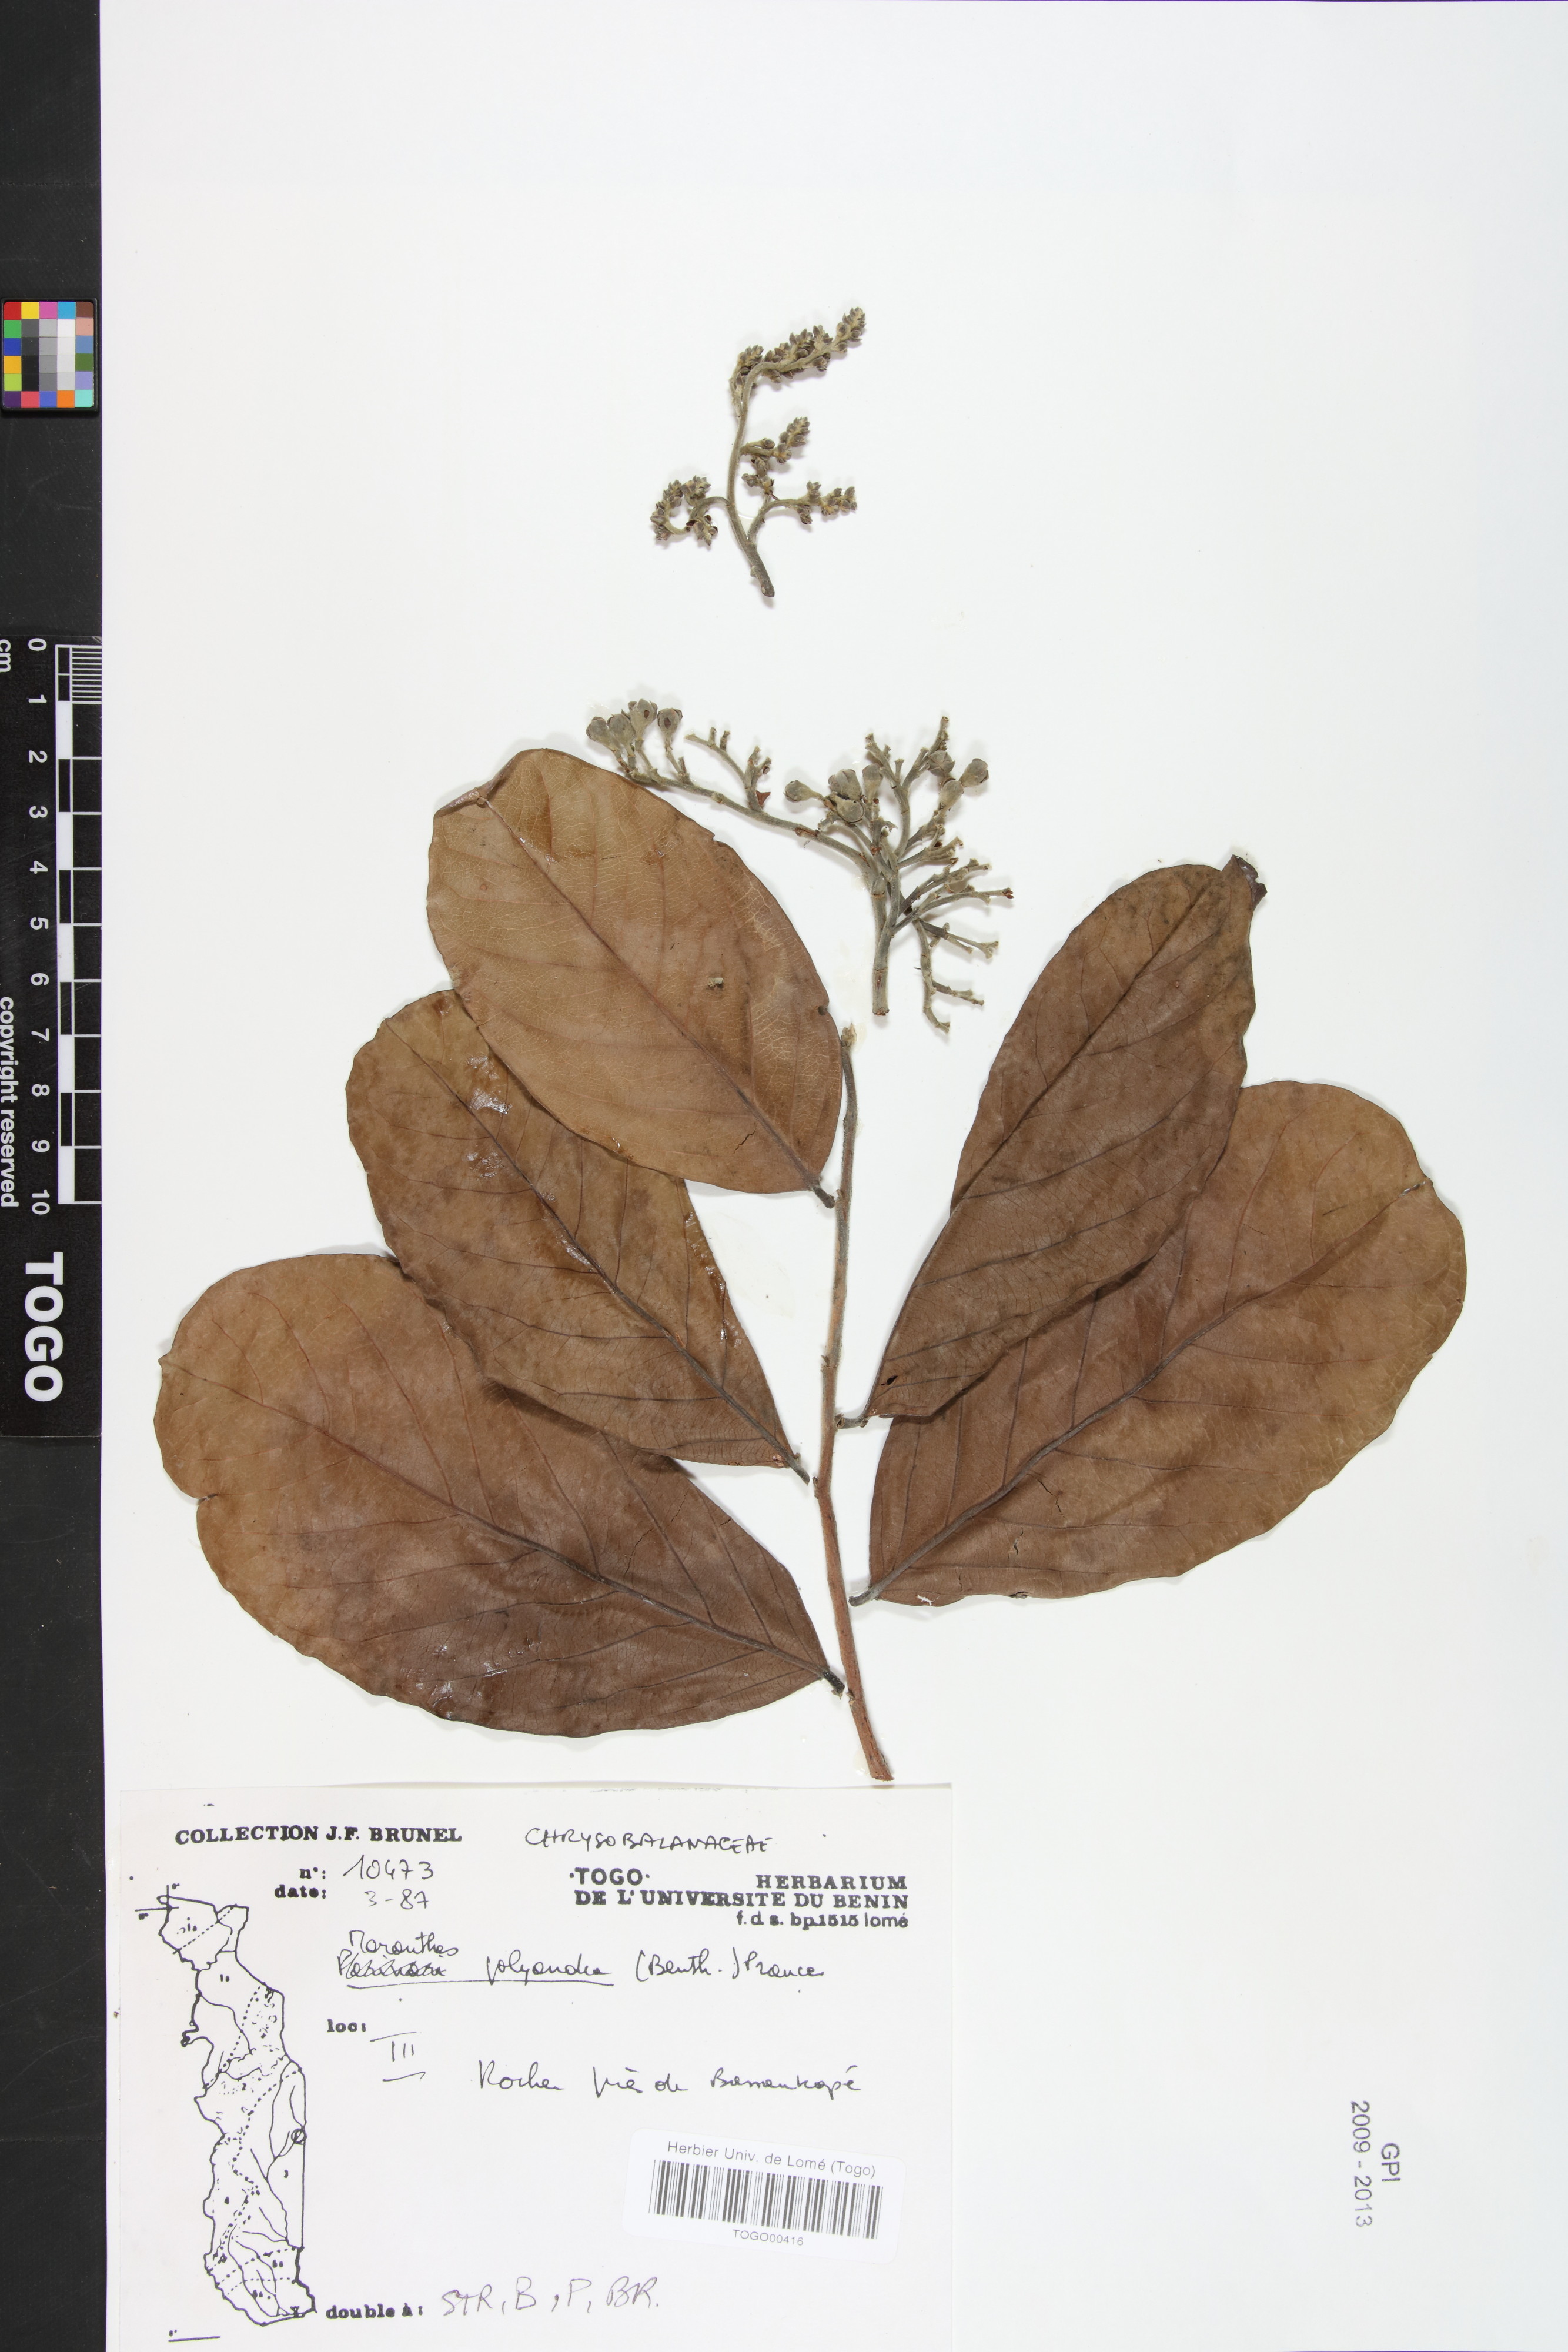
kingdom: Plantae
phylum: Tracheophyta
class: Magnoliopsida
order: Malpighiales
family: Chrysobalanaceae
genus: Maranthes
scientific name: Maranthes polyandra
